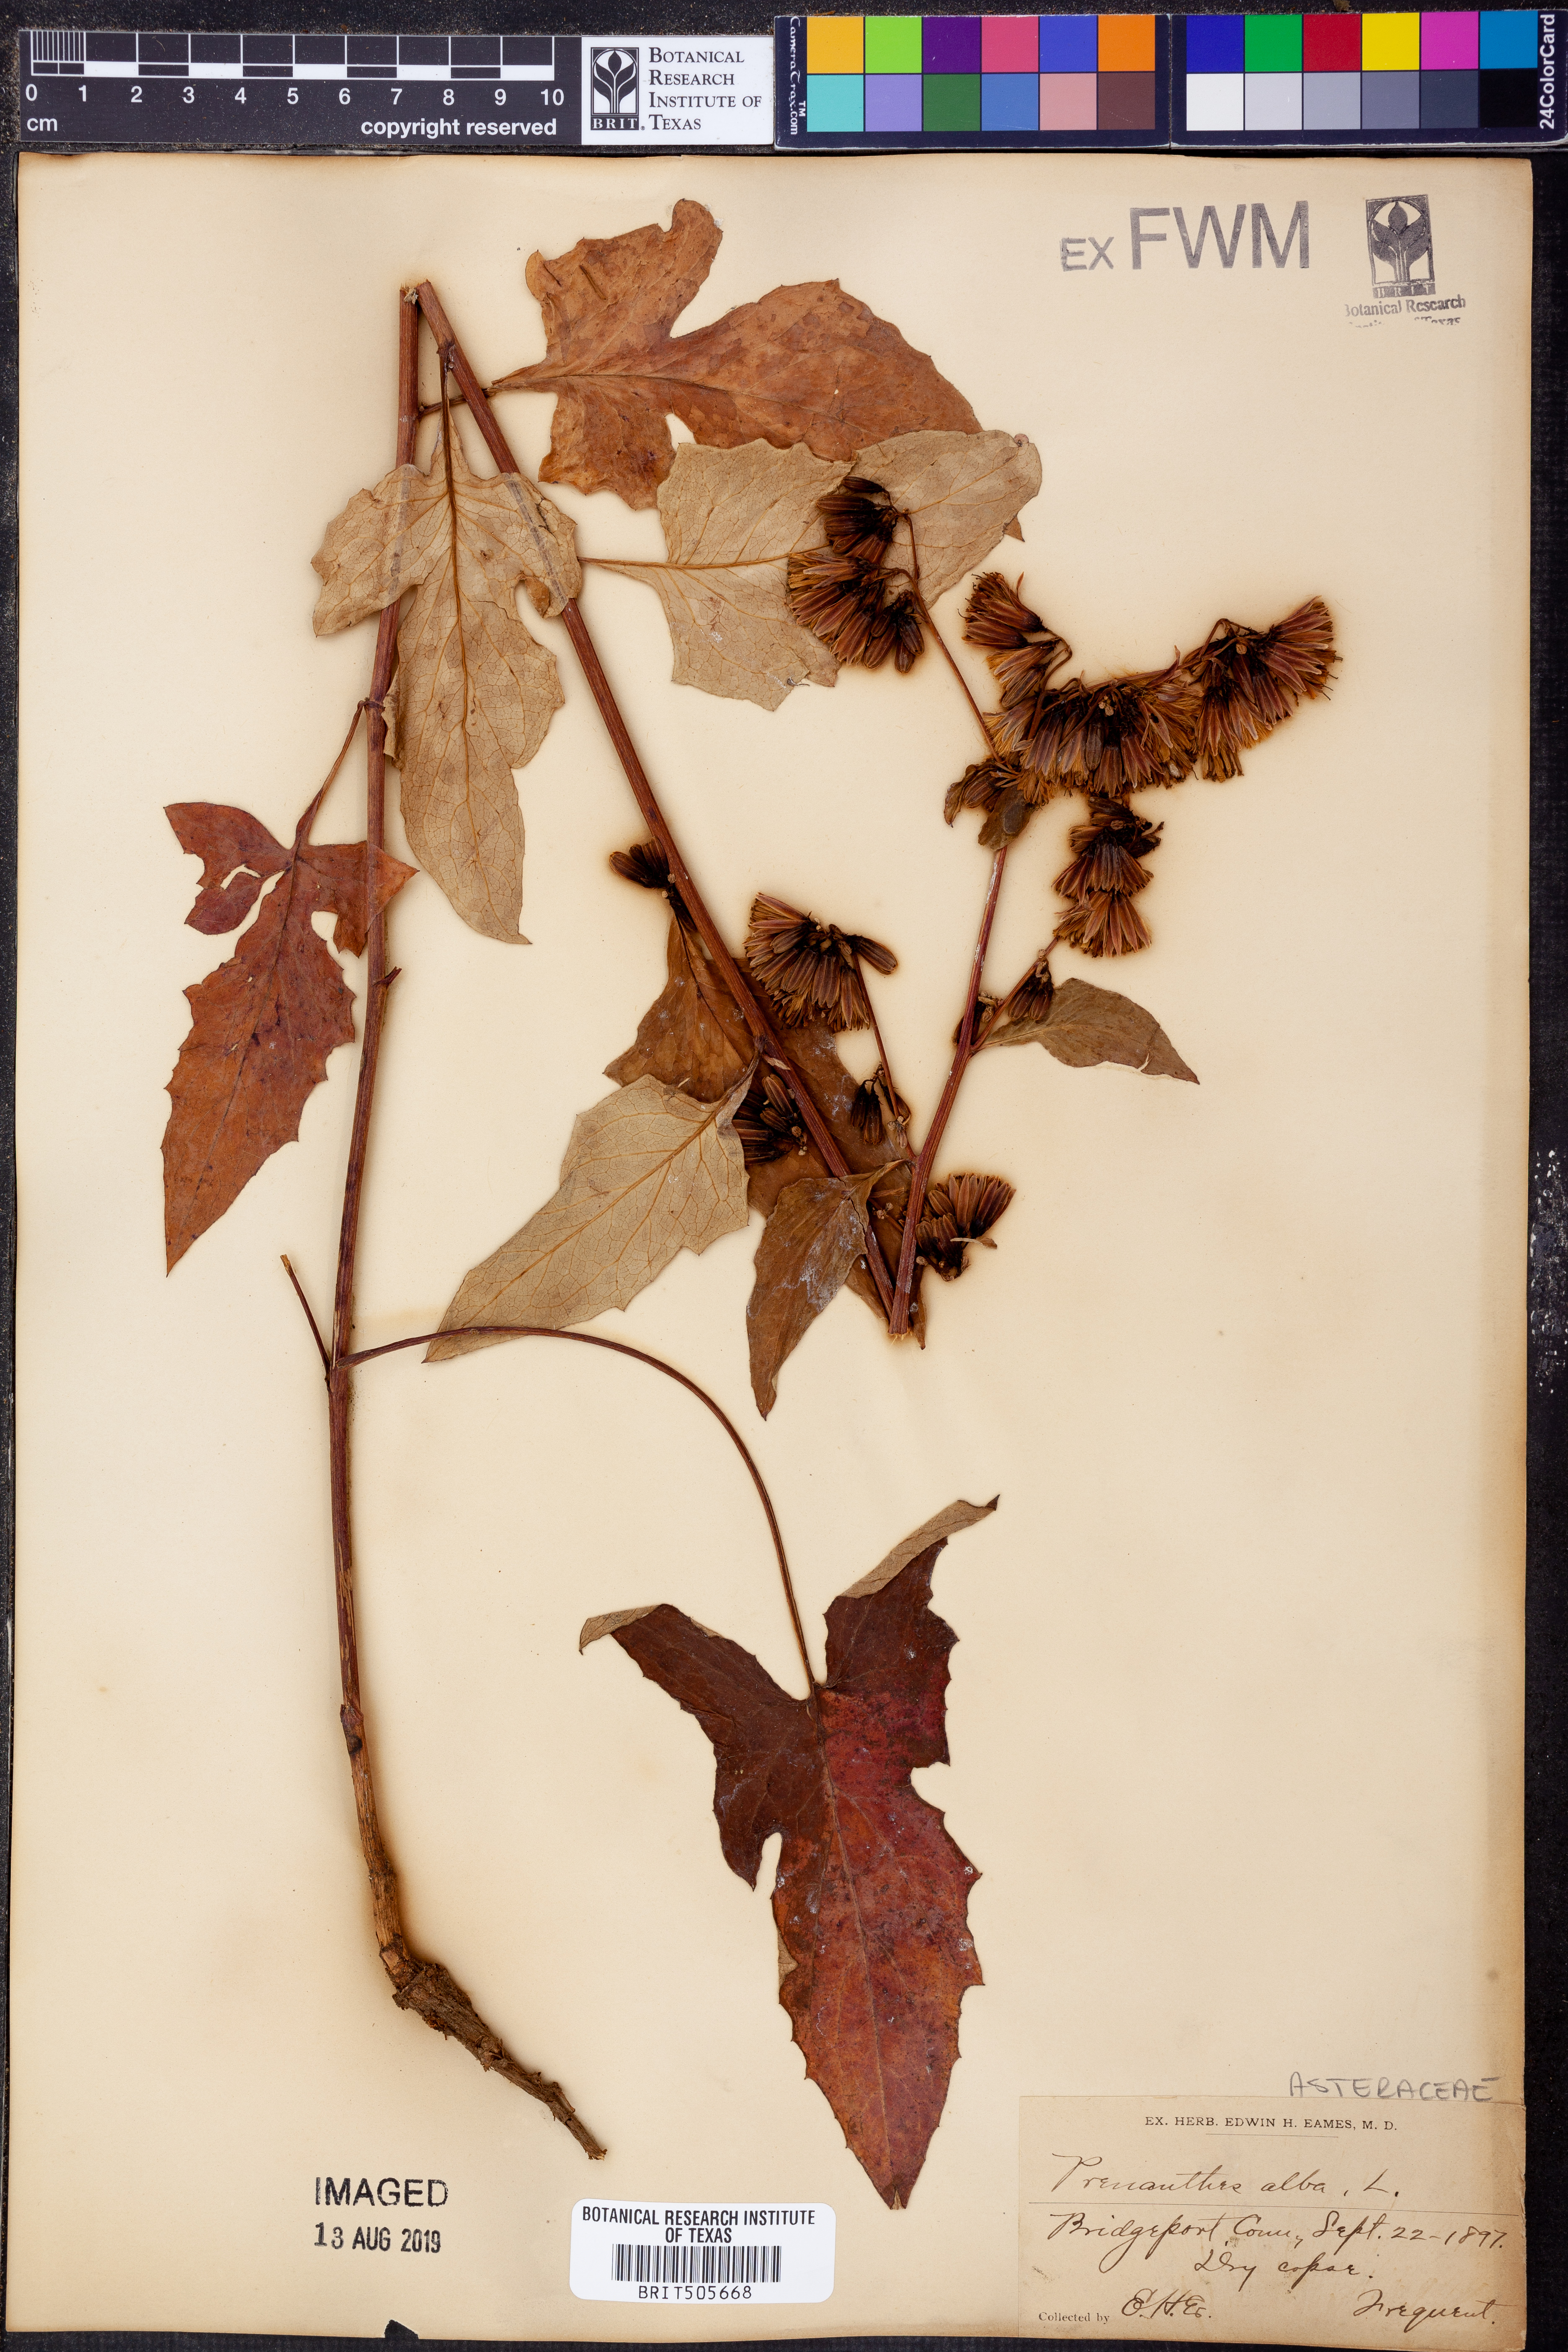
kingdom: Plantae
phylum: Tracheophyta
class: Magnoliopsida
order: Asterales
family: Asteraceae
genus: Nabalus
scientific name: Nabalus albus
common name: White rattlesnakeroot
